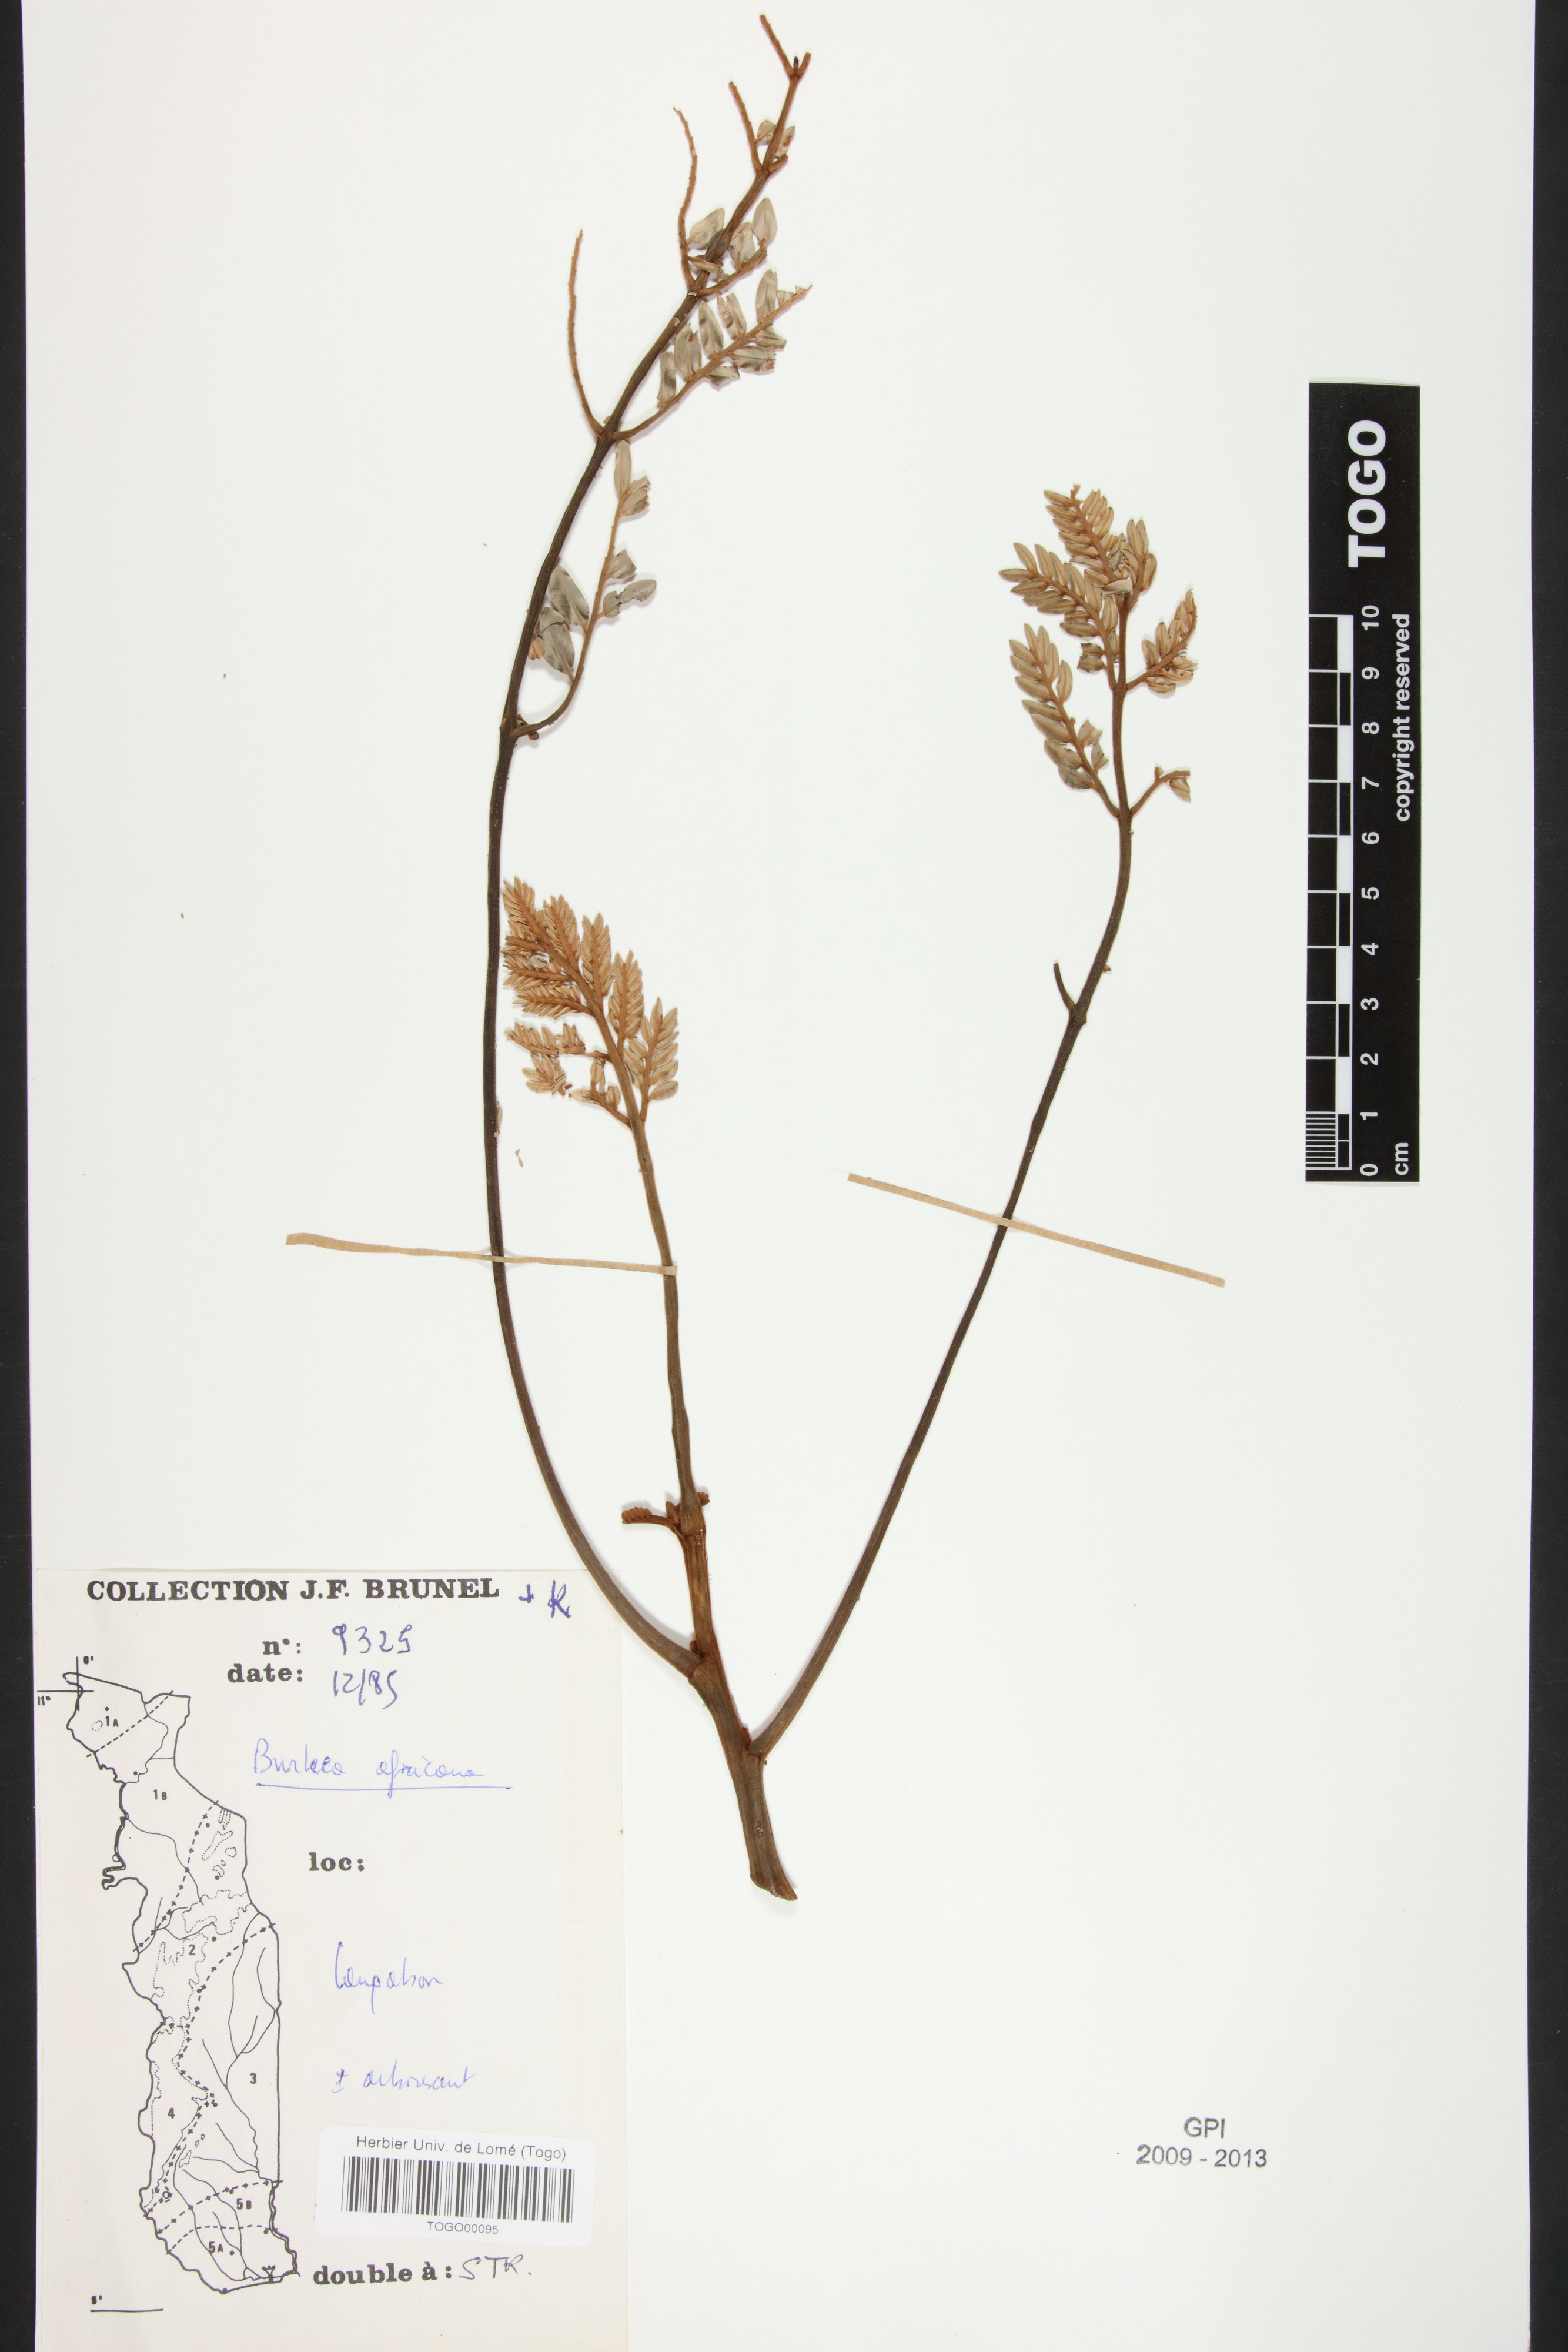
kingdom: Plantae
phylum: Tracheophyta
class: Magnoliopsida
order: Fabales
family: Fabaceae
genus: Burkea
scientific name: Burkea africana
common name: Mkalati tree
